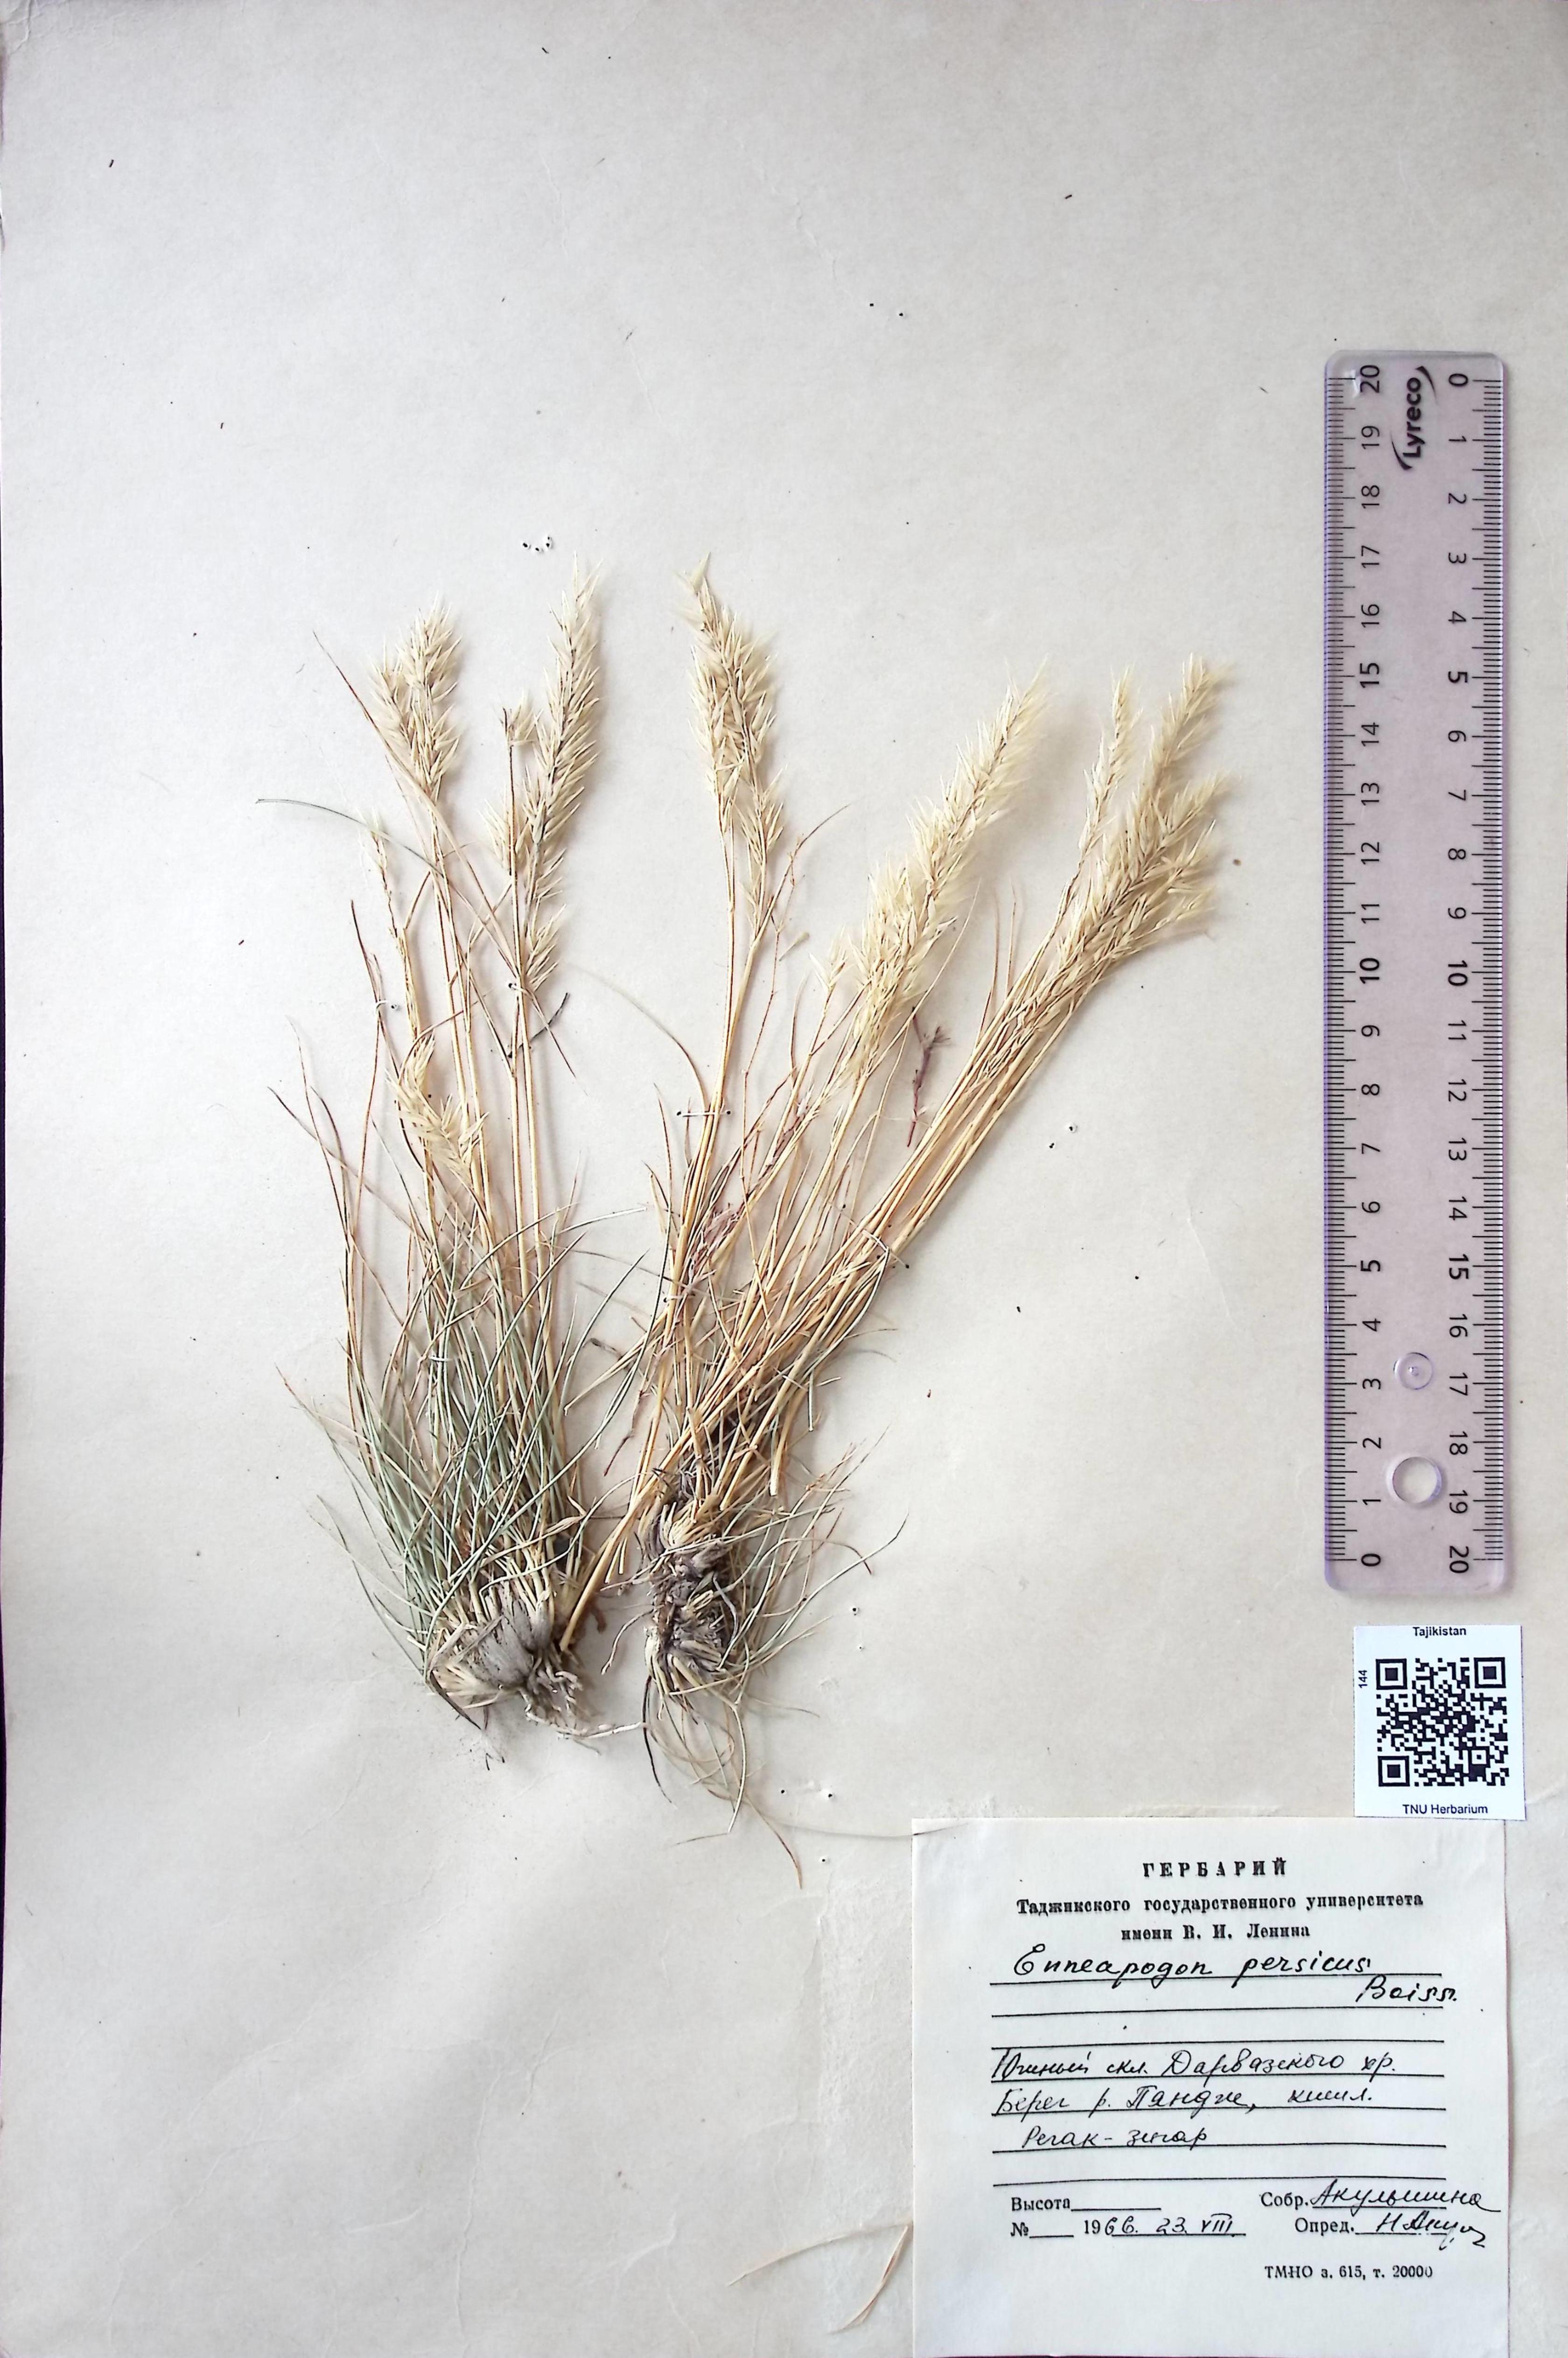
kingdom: Plantae
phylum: Tracheophyta
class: Liliopsida
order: Poales
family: Poaceae
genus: Enneapogon
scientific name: Enneapogon persicus
